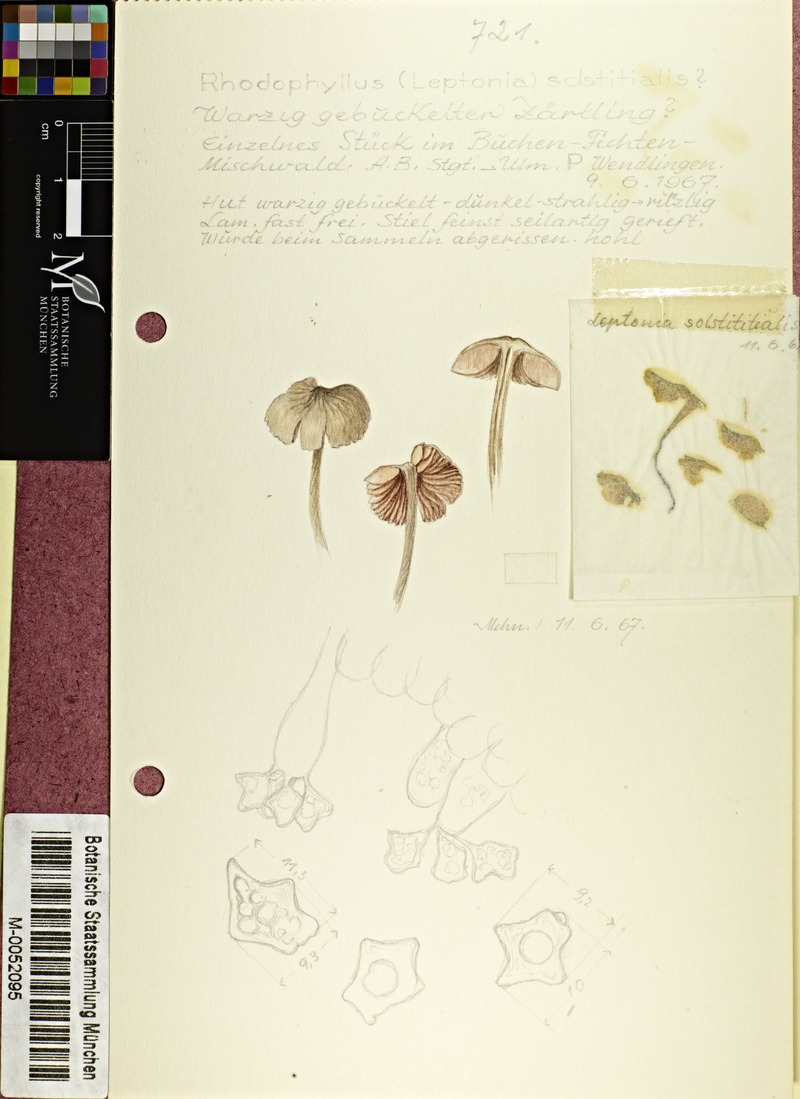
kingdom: Fungi
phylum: Basidiomycota
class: Agaricomycetes
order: Agaricales
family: Entolomataceae
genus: Entoloma
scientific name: Entoloma solstitiale
